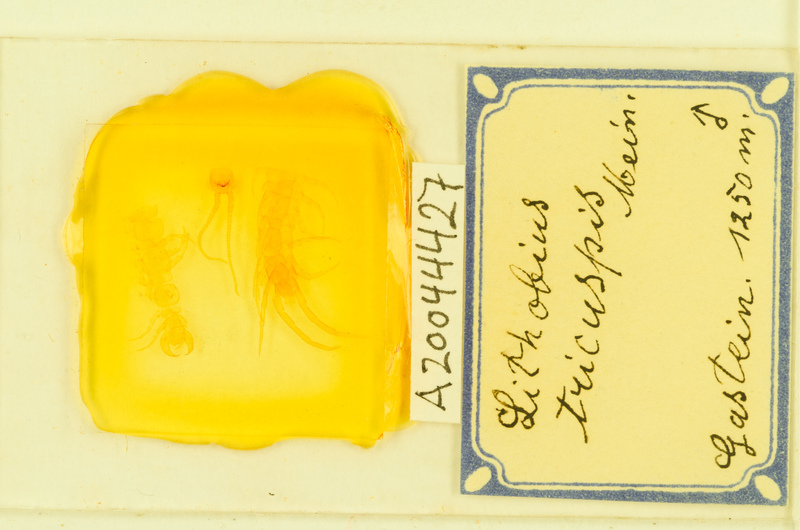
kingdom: Animalia
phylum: Arthropoda
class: Chilopoda
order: Lithobiomorpha
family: Lithobiidae
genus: Lithobius
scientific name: Lithobius tricuspis
